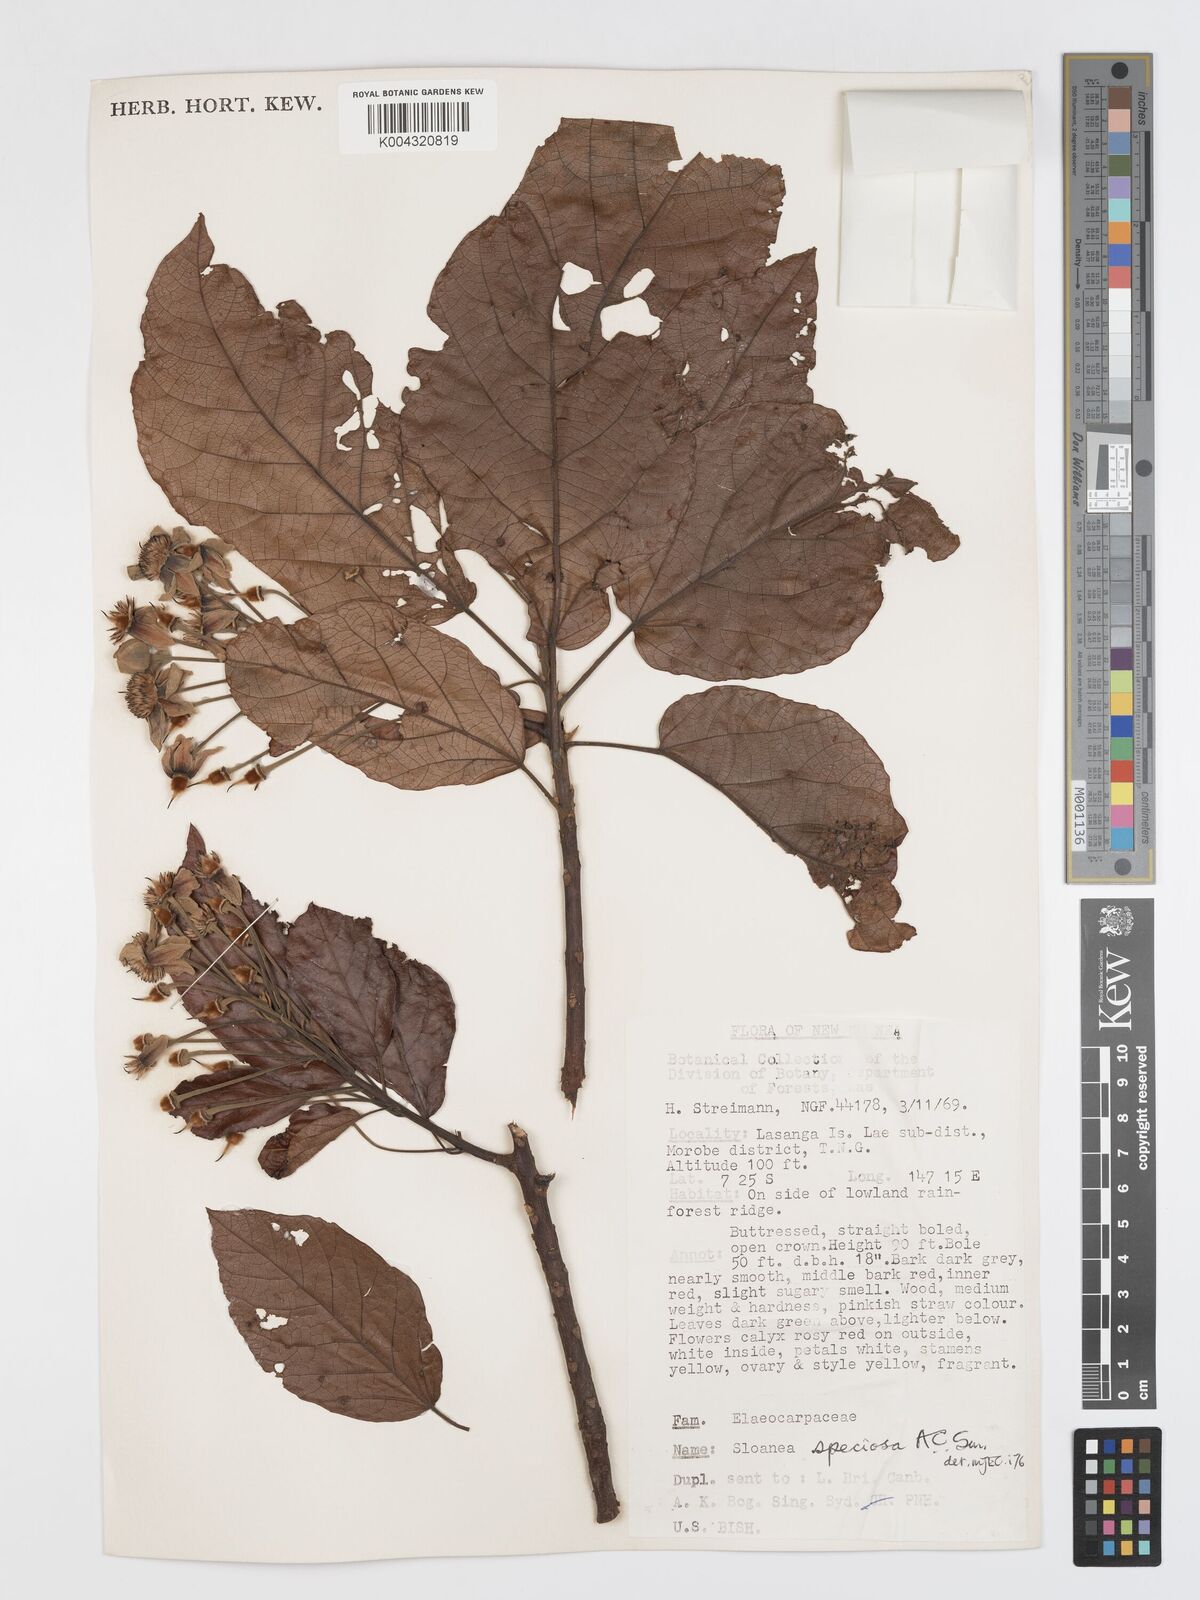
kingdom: Plantae
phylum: Tracheophyta
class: Magnoliopsida
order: Oxalidales
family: Elaeocarpaceae
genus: Sloanea
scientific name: Sloanea aculeata
